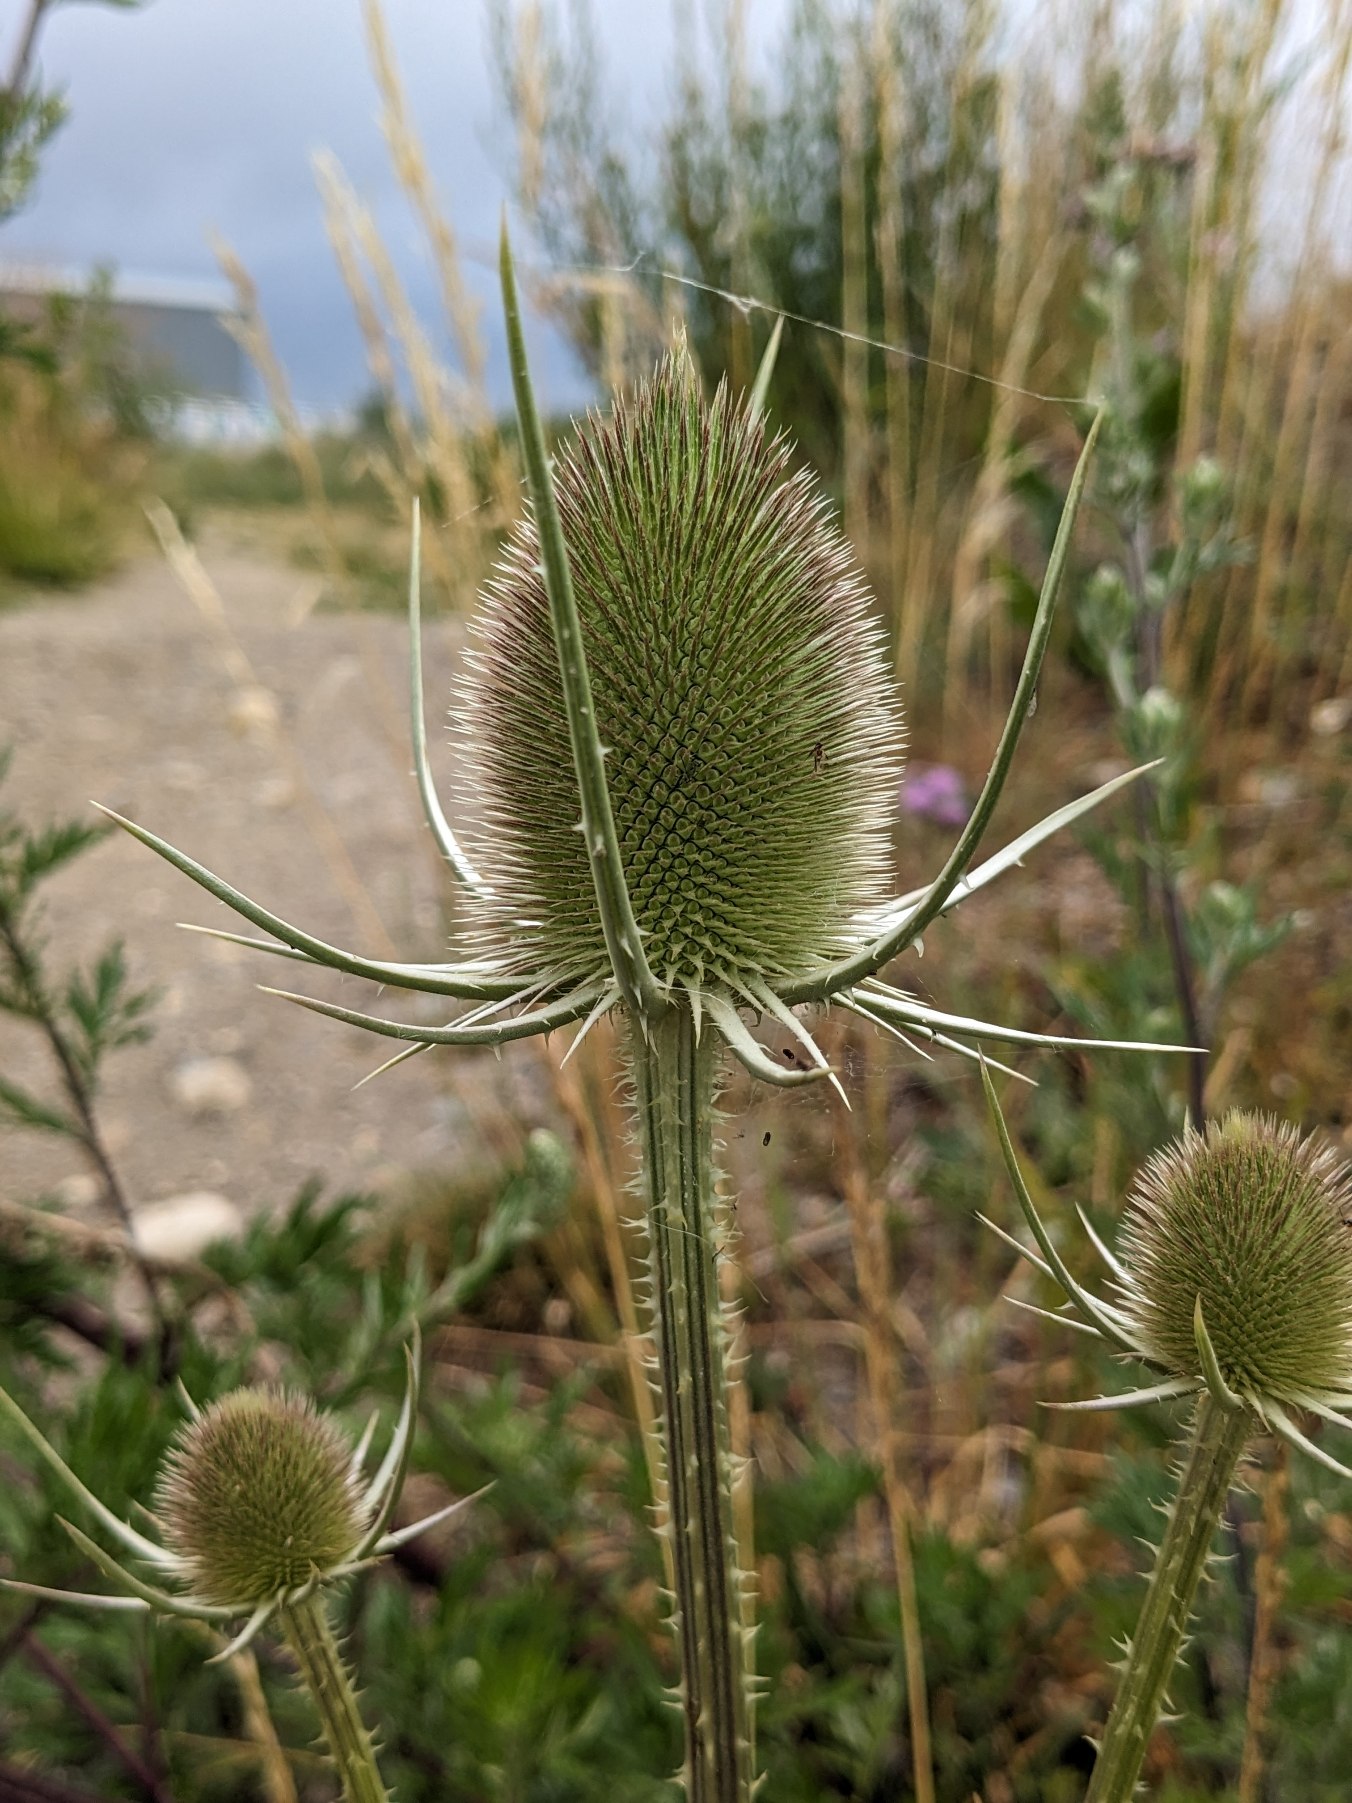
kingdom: Plantae
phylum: Tracheophyta
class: Magnoliopsida
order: Dipsacales
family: Caprifoliaceae
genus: Dipsacus
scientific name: Dipsacus fullonum
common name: Gærde-kartebolle
